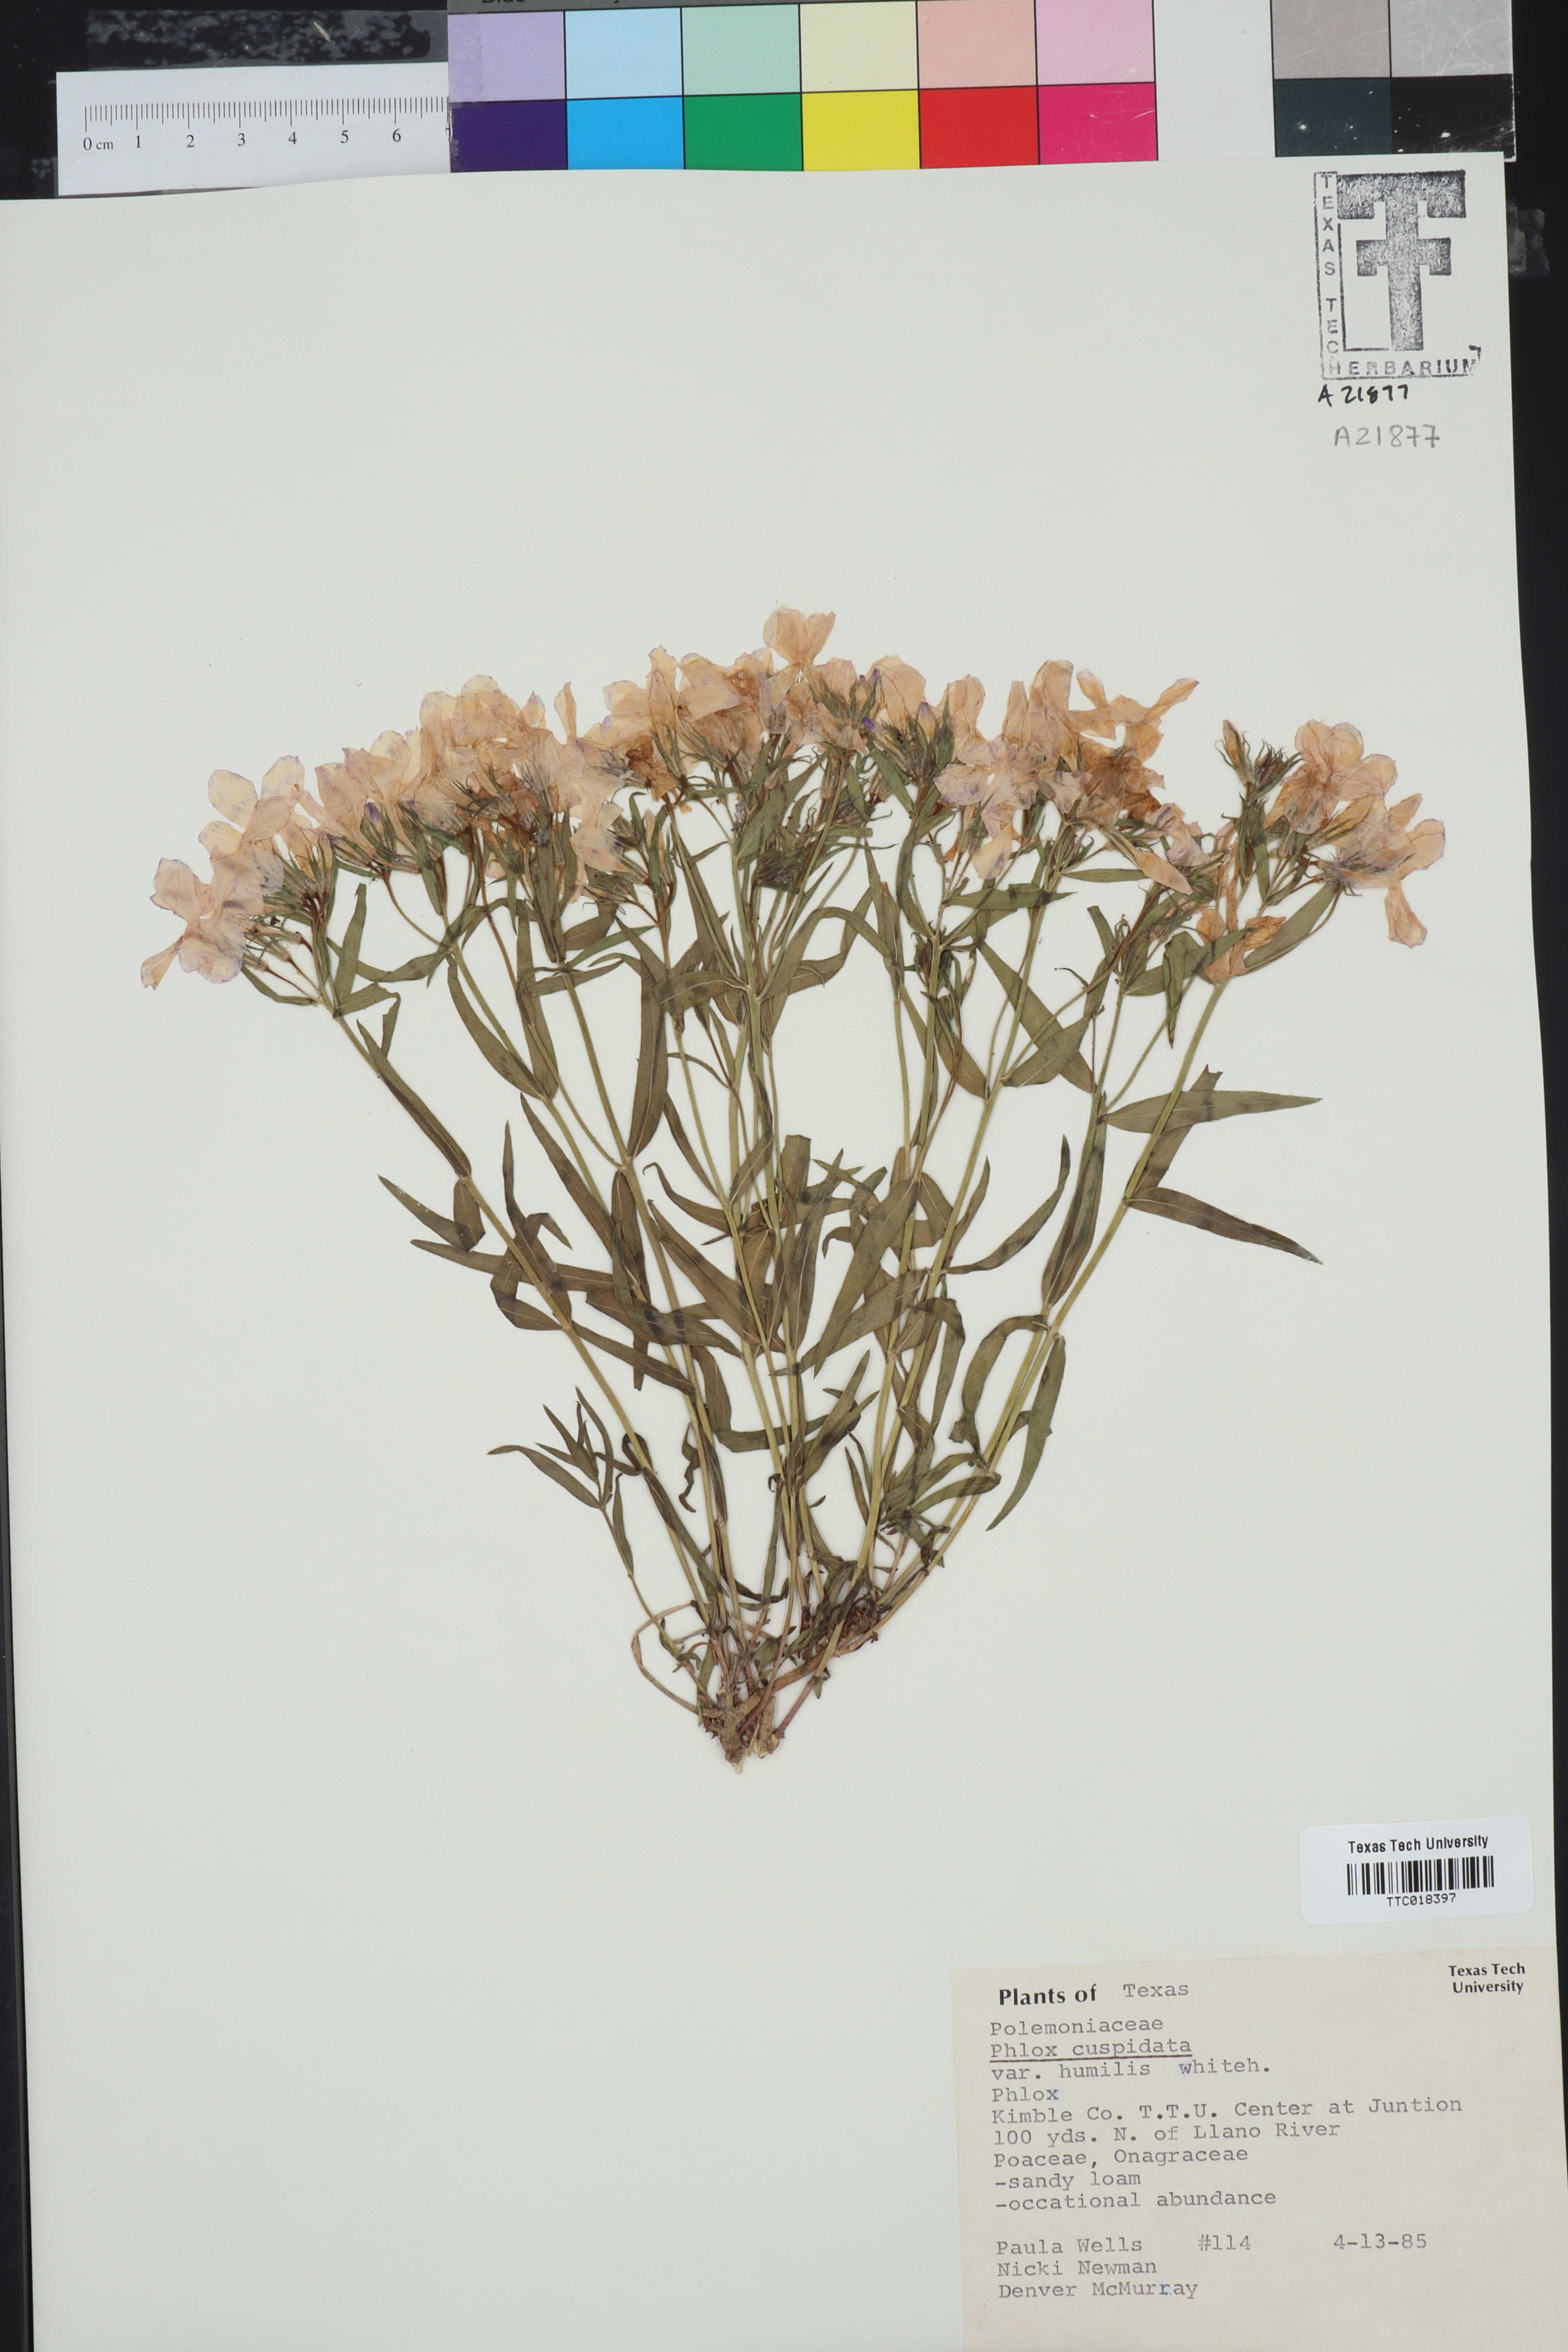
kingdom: Plantae
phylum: Tracheophyta
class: Magnoliopsida
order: Ericales
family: Polemoniaceae
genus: Phlox
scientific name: Phlox cuspidata
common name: Pointed phlox
